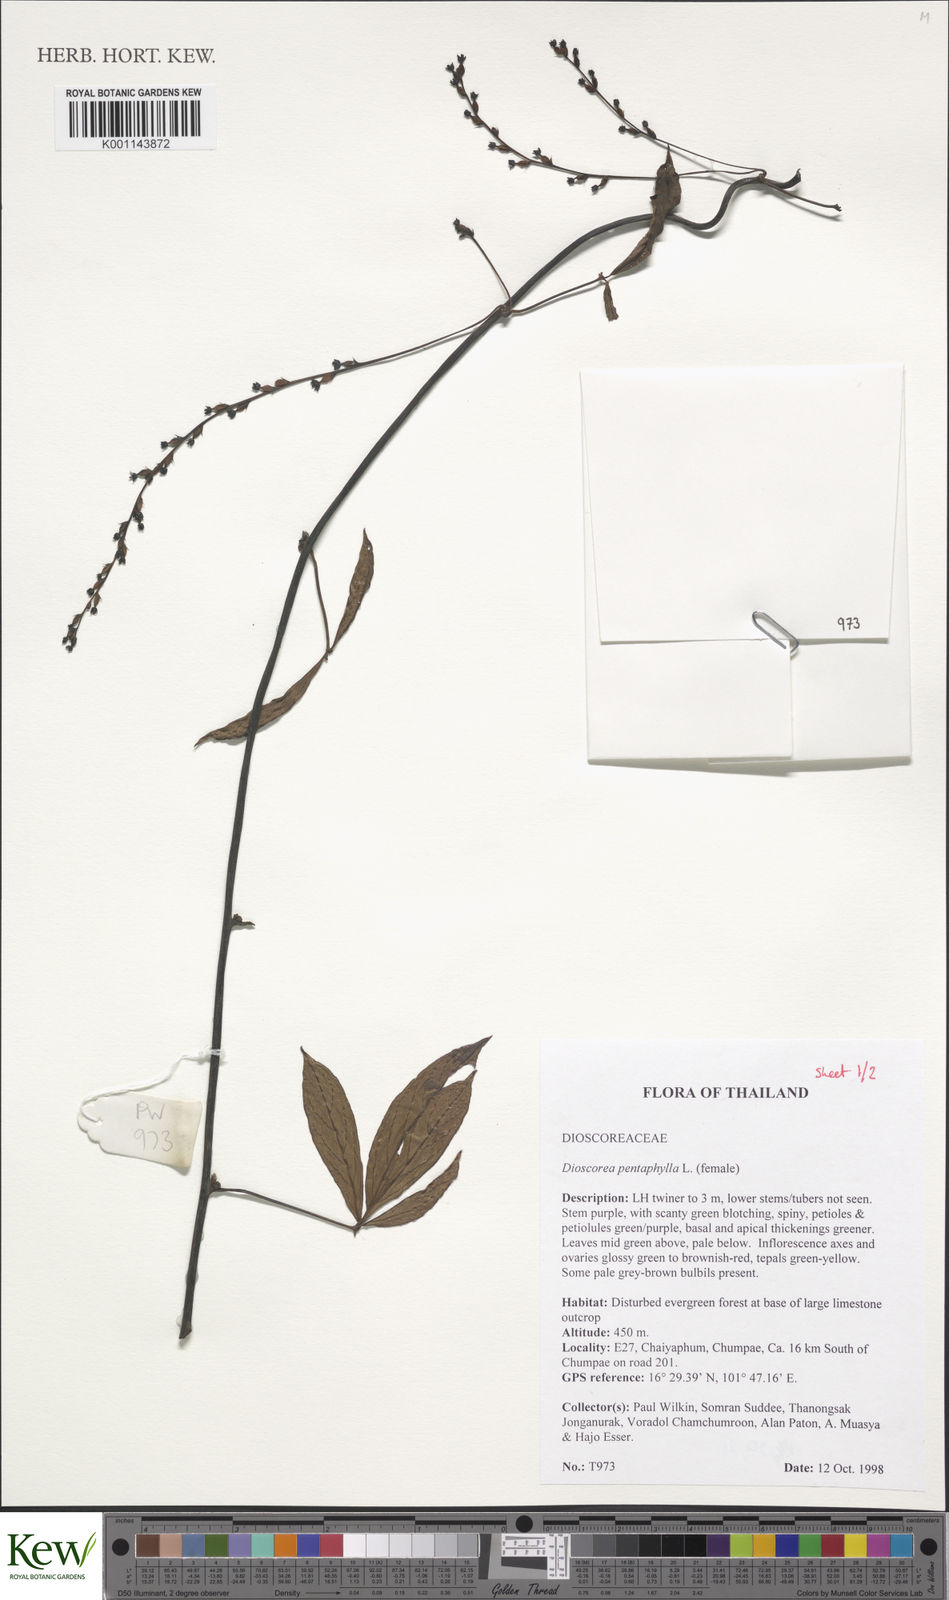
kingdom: Plantae
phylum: Tracheophyta
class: Liliopsida
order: Dioscoreales
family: Dioscoreaceae
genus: Dioscorea
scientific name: Dioscorea pentaphylla
